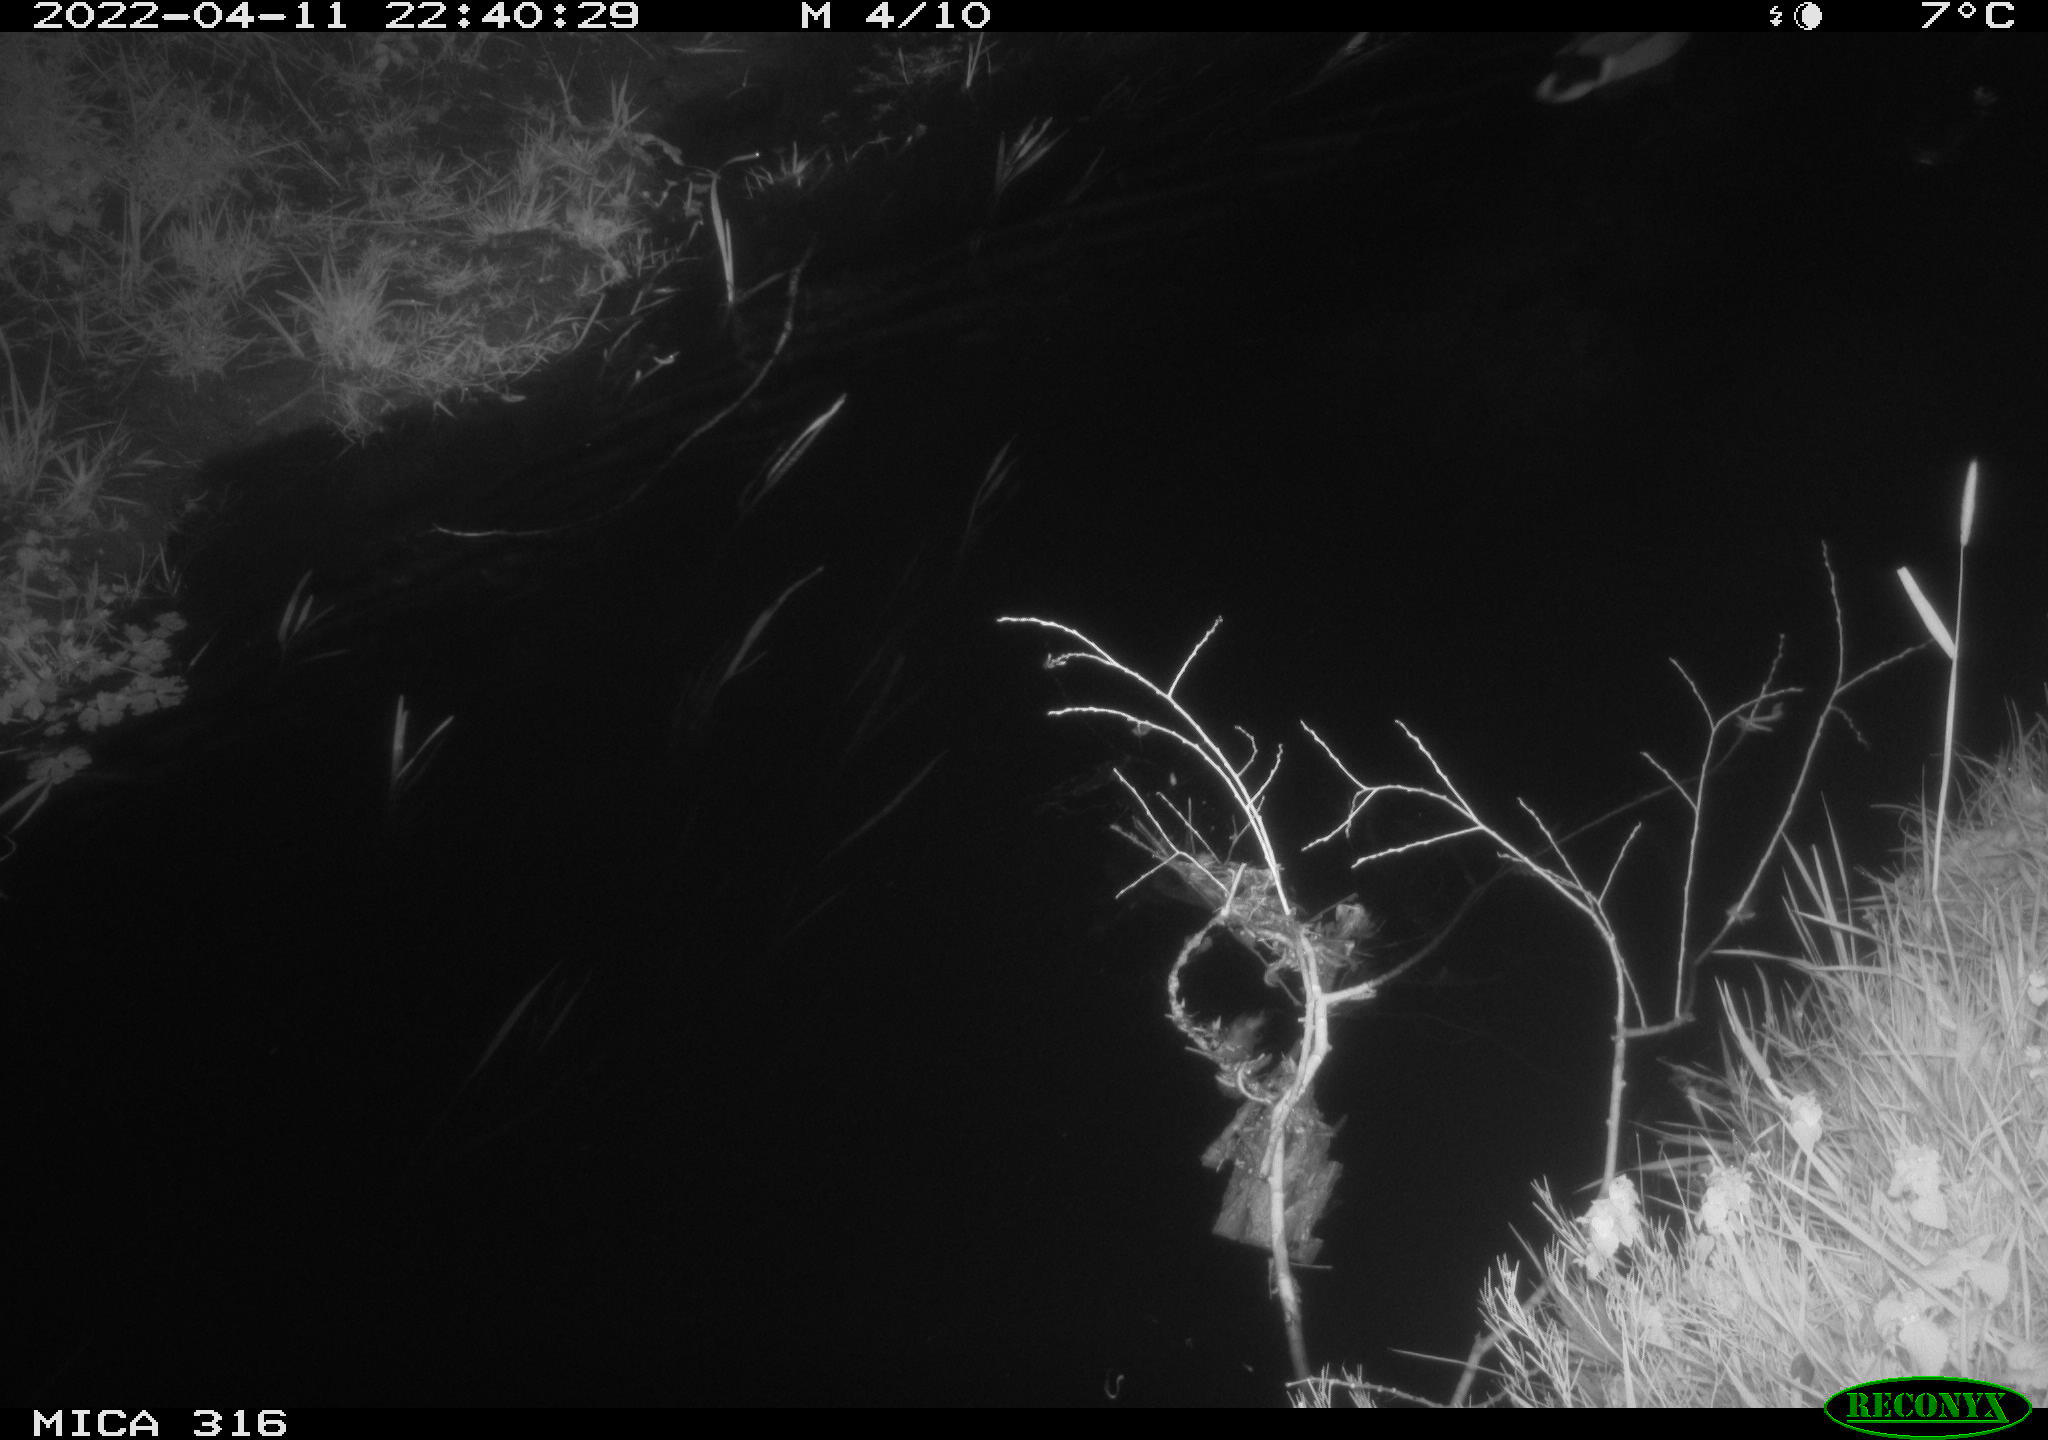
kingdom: Animalia
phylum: Chordata
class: Aves
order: Anseriformes
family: Anatidae
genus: Anas
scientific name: Anas platyrhynchos
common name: Mallard
